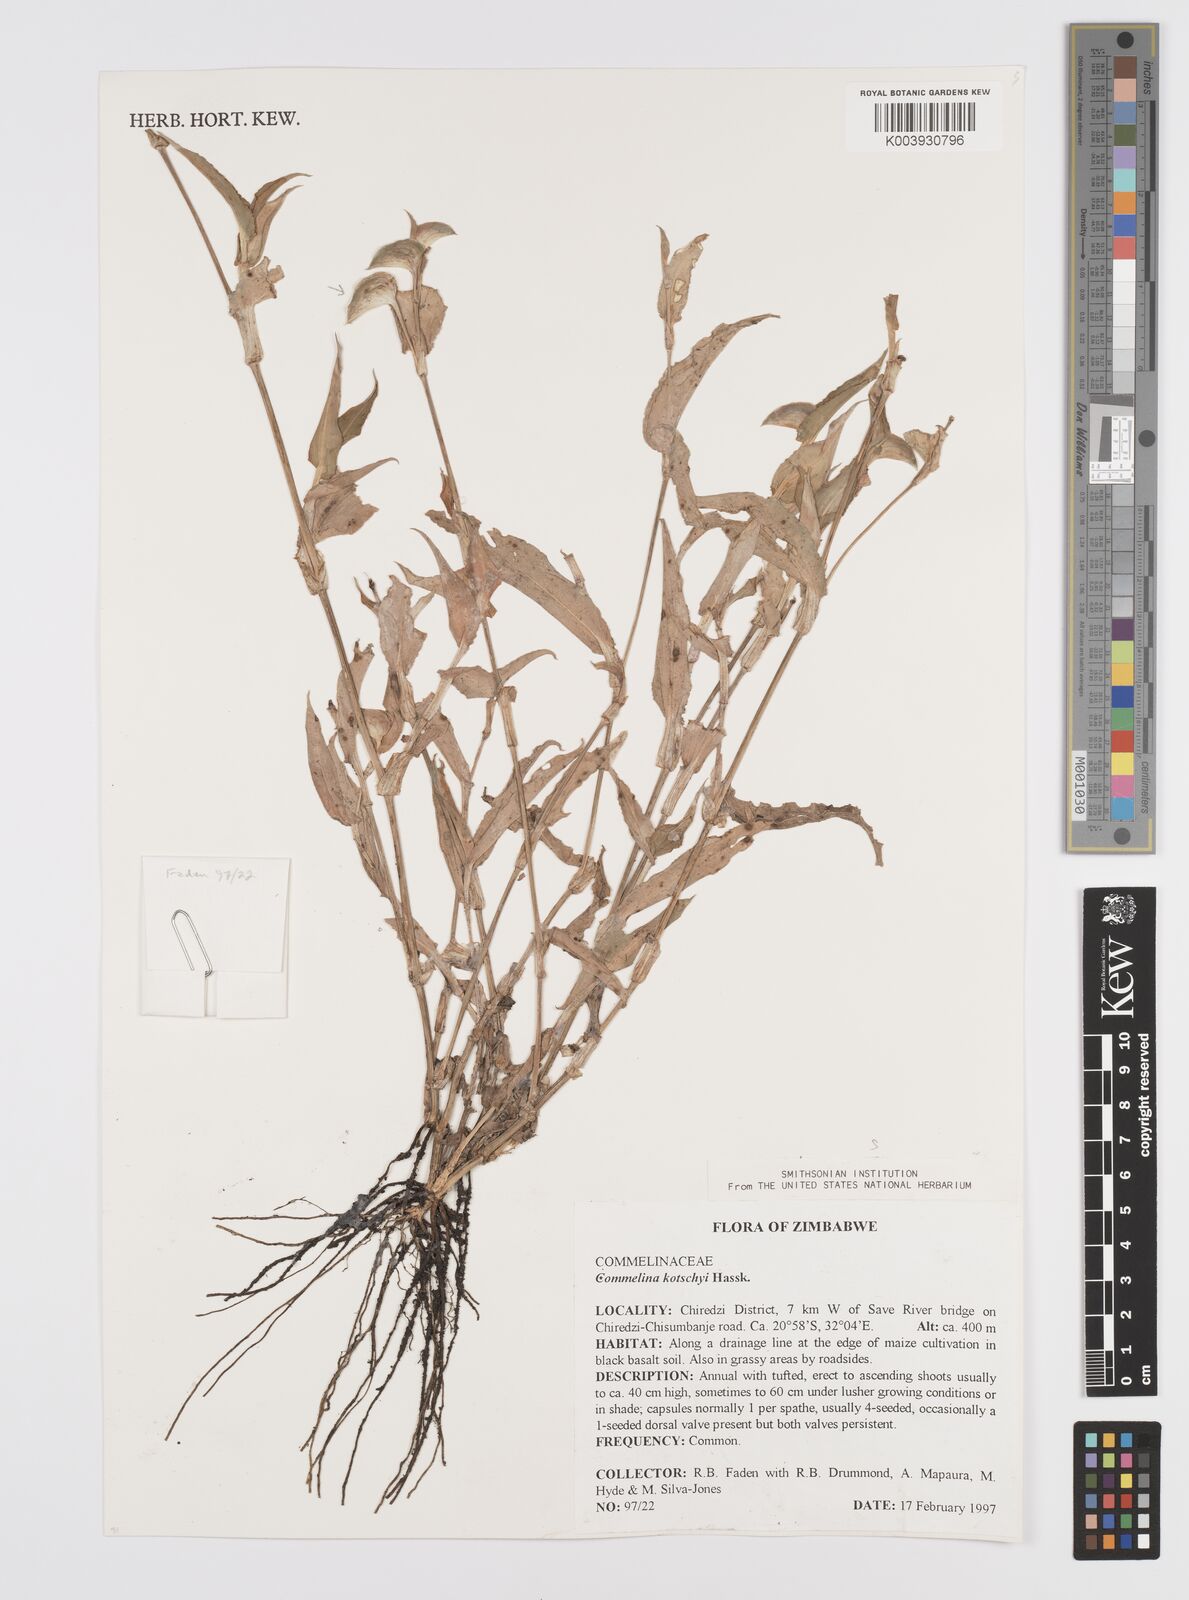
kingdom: Plantae
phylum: Tracheophyta
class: Liliopsida
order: Commelinales
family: Commelinaceae
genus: Commelina
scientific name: Commelina kotschyi
